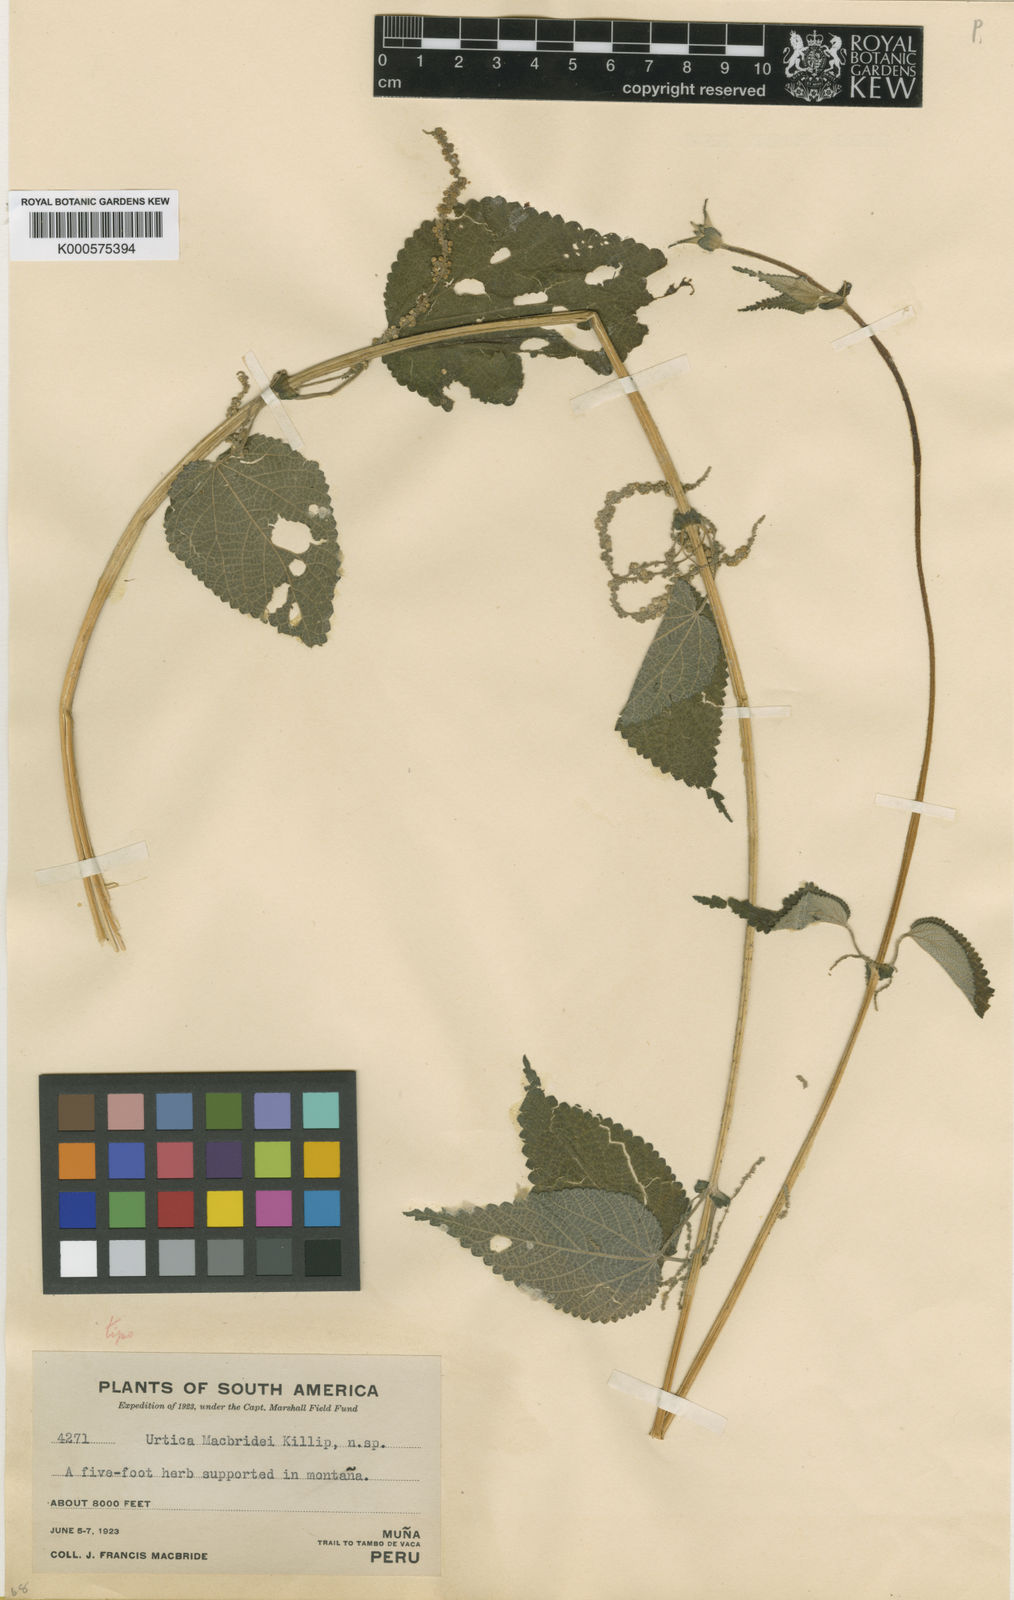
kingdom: Plantae
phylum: Tracheophyta
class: Magnoliopsida
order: Rosales
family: Urticaceae
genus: Urtica
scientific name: Urtica macbridei
